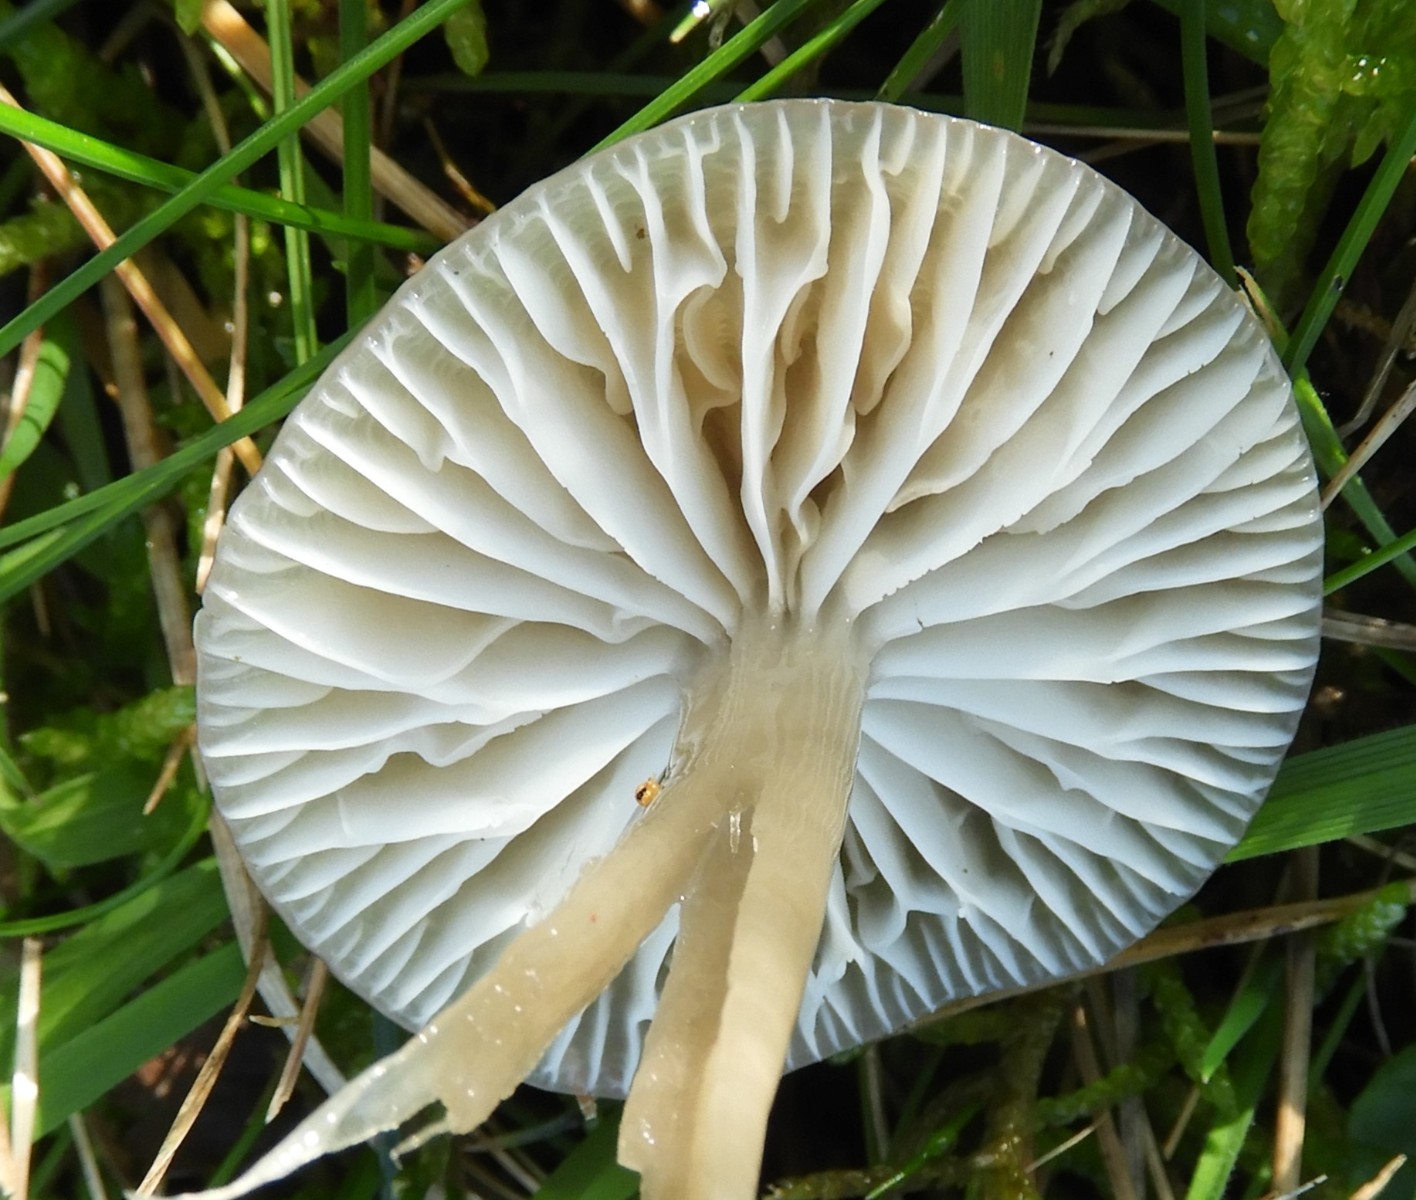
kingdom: Fungi
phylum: Basidiomycota
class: Agaricomycetes
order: Agaricales
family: Hygrophoraceae
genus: Gliophorus
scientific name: Gliophorus irrigatus
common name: slimet vokshat
